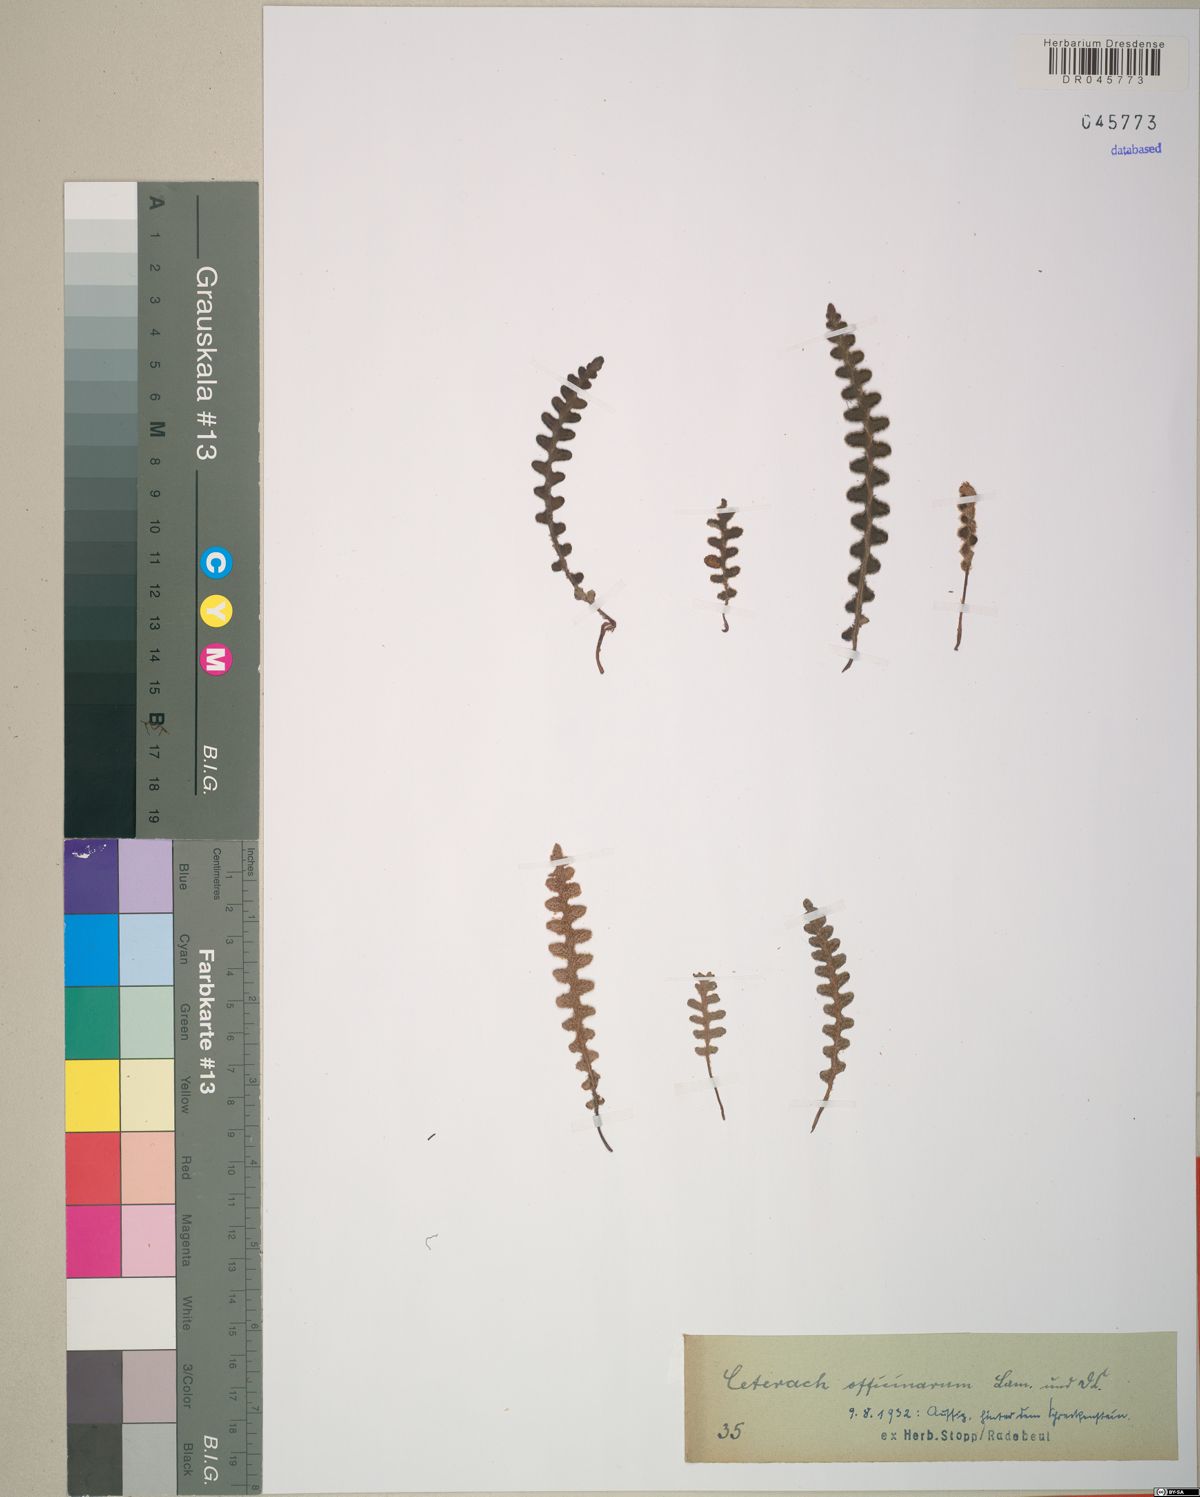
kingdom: Plantae
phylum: Tracheophyta
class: Polypodiopsida
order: Polypodiales
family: Aspleniaceae
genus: Asplenium
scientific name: Asplenium ceterach
